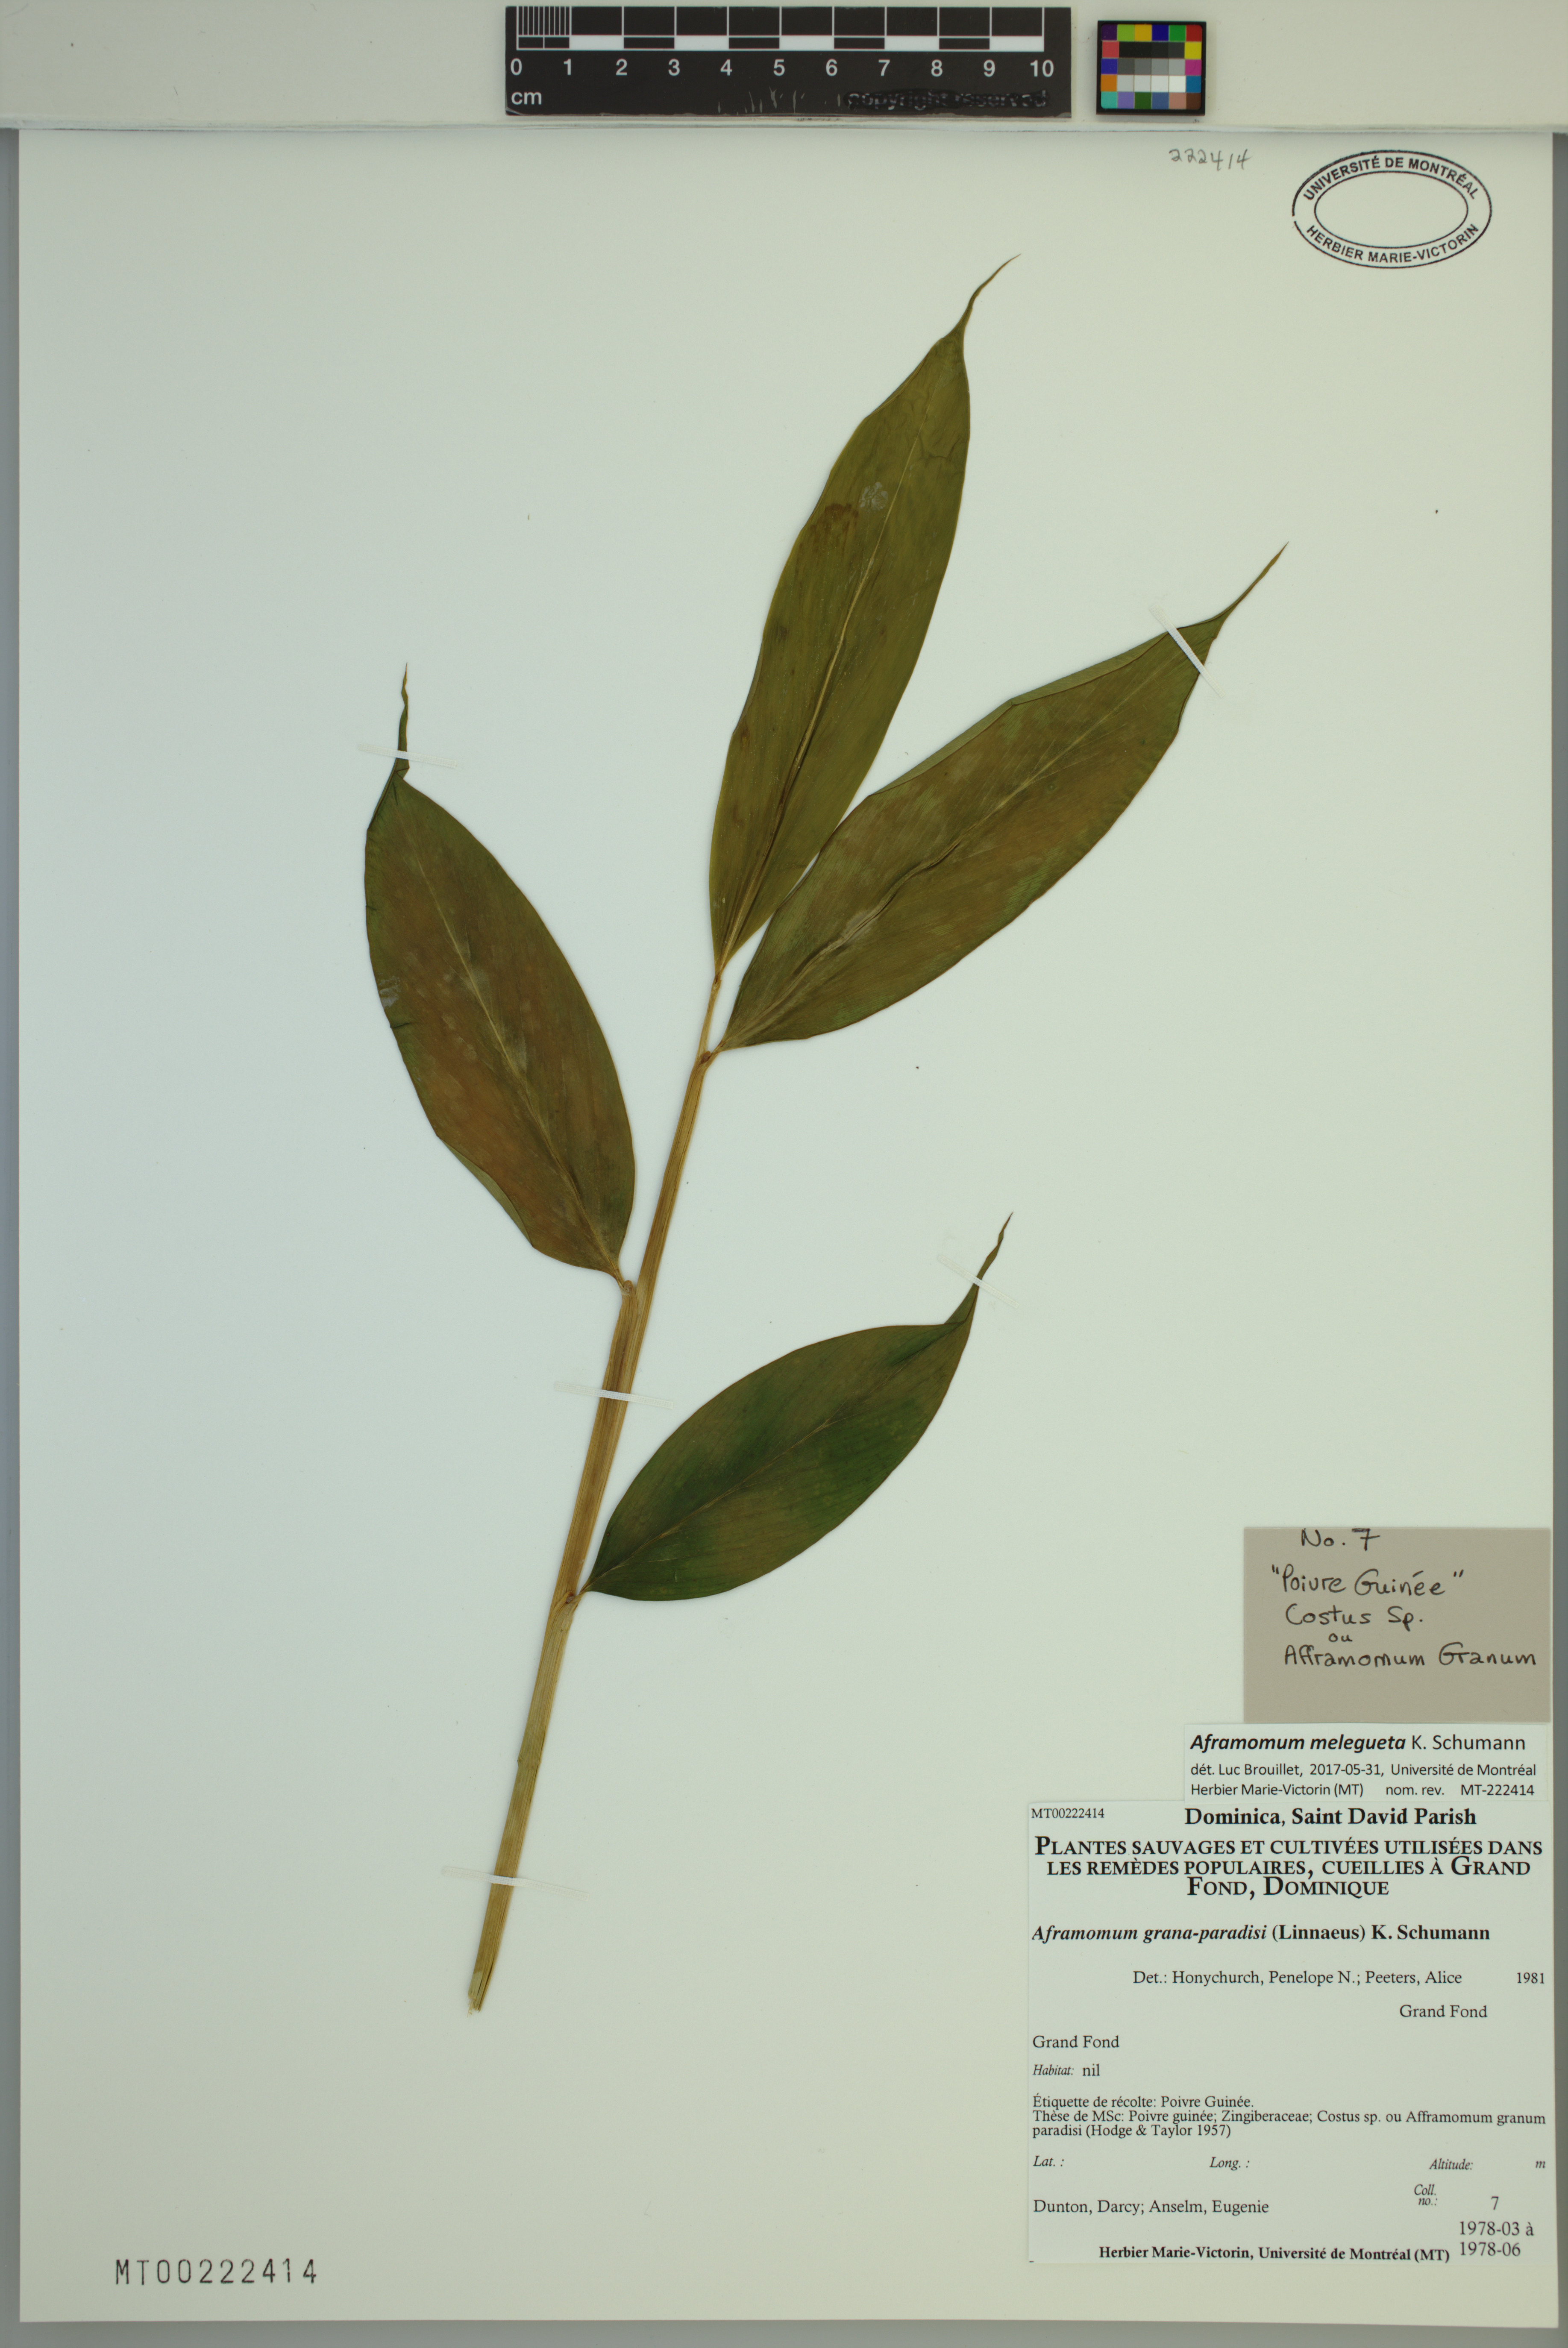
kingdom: Plantae
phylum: Tracheophyta
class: Liliopsida
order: Zingiberales
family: Zingiberaceae
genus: Aframomum
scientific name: Aframomum melegueta
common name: Grains of paradise
